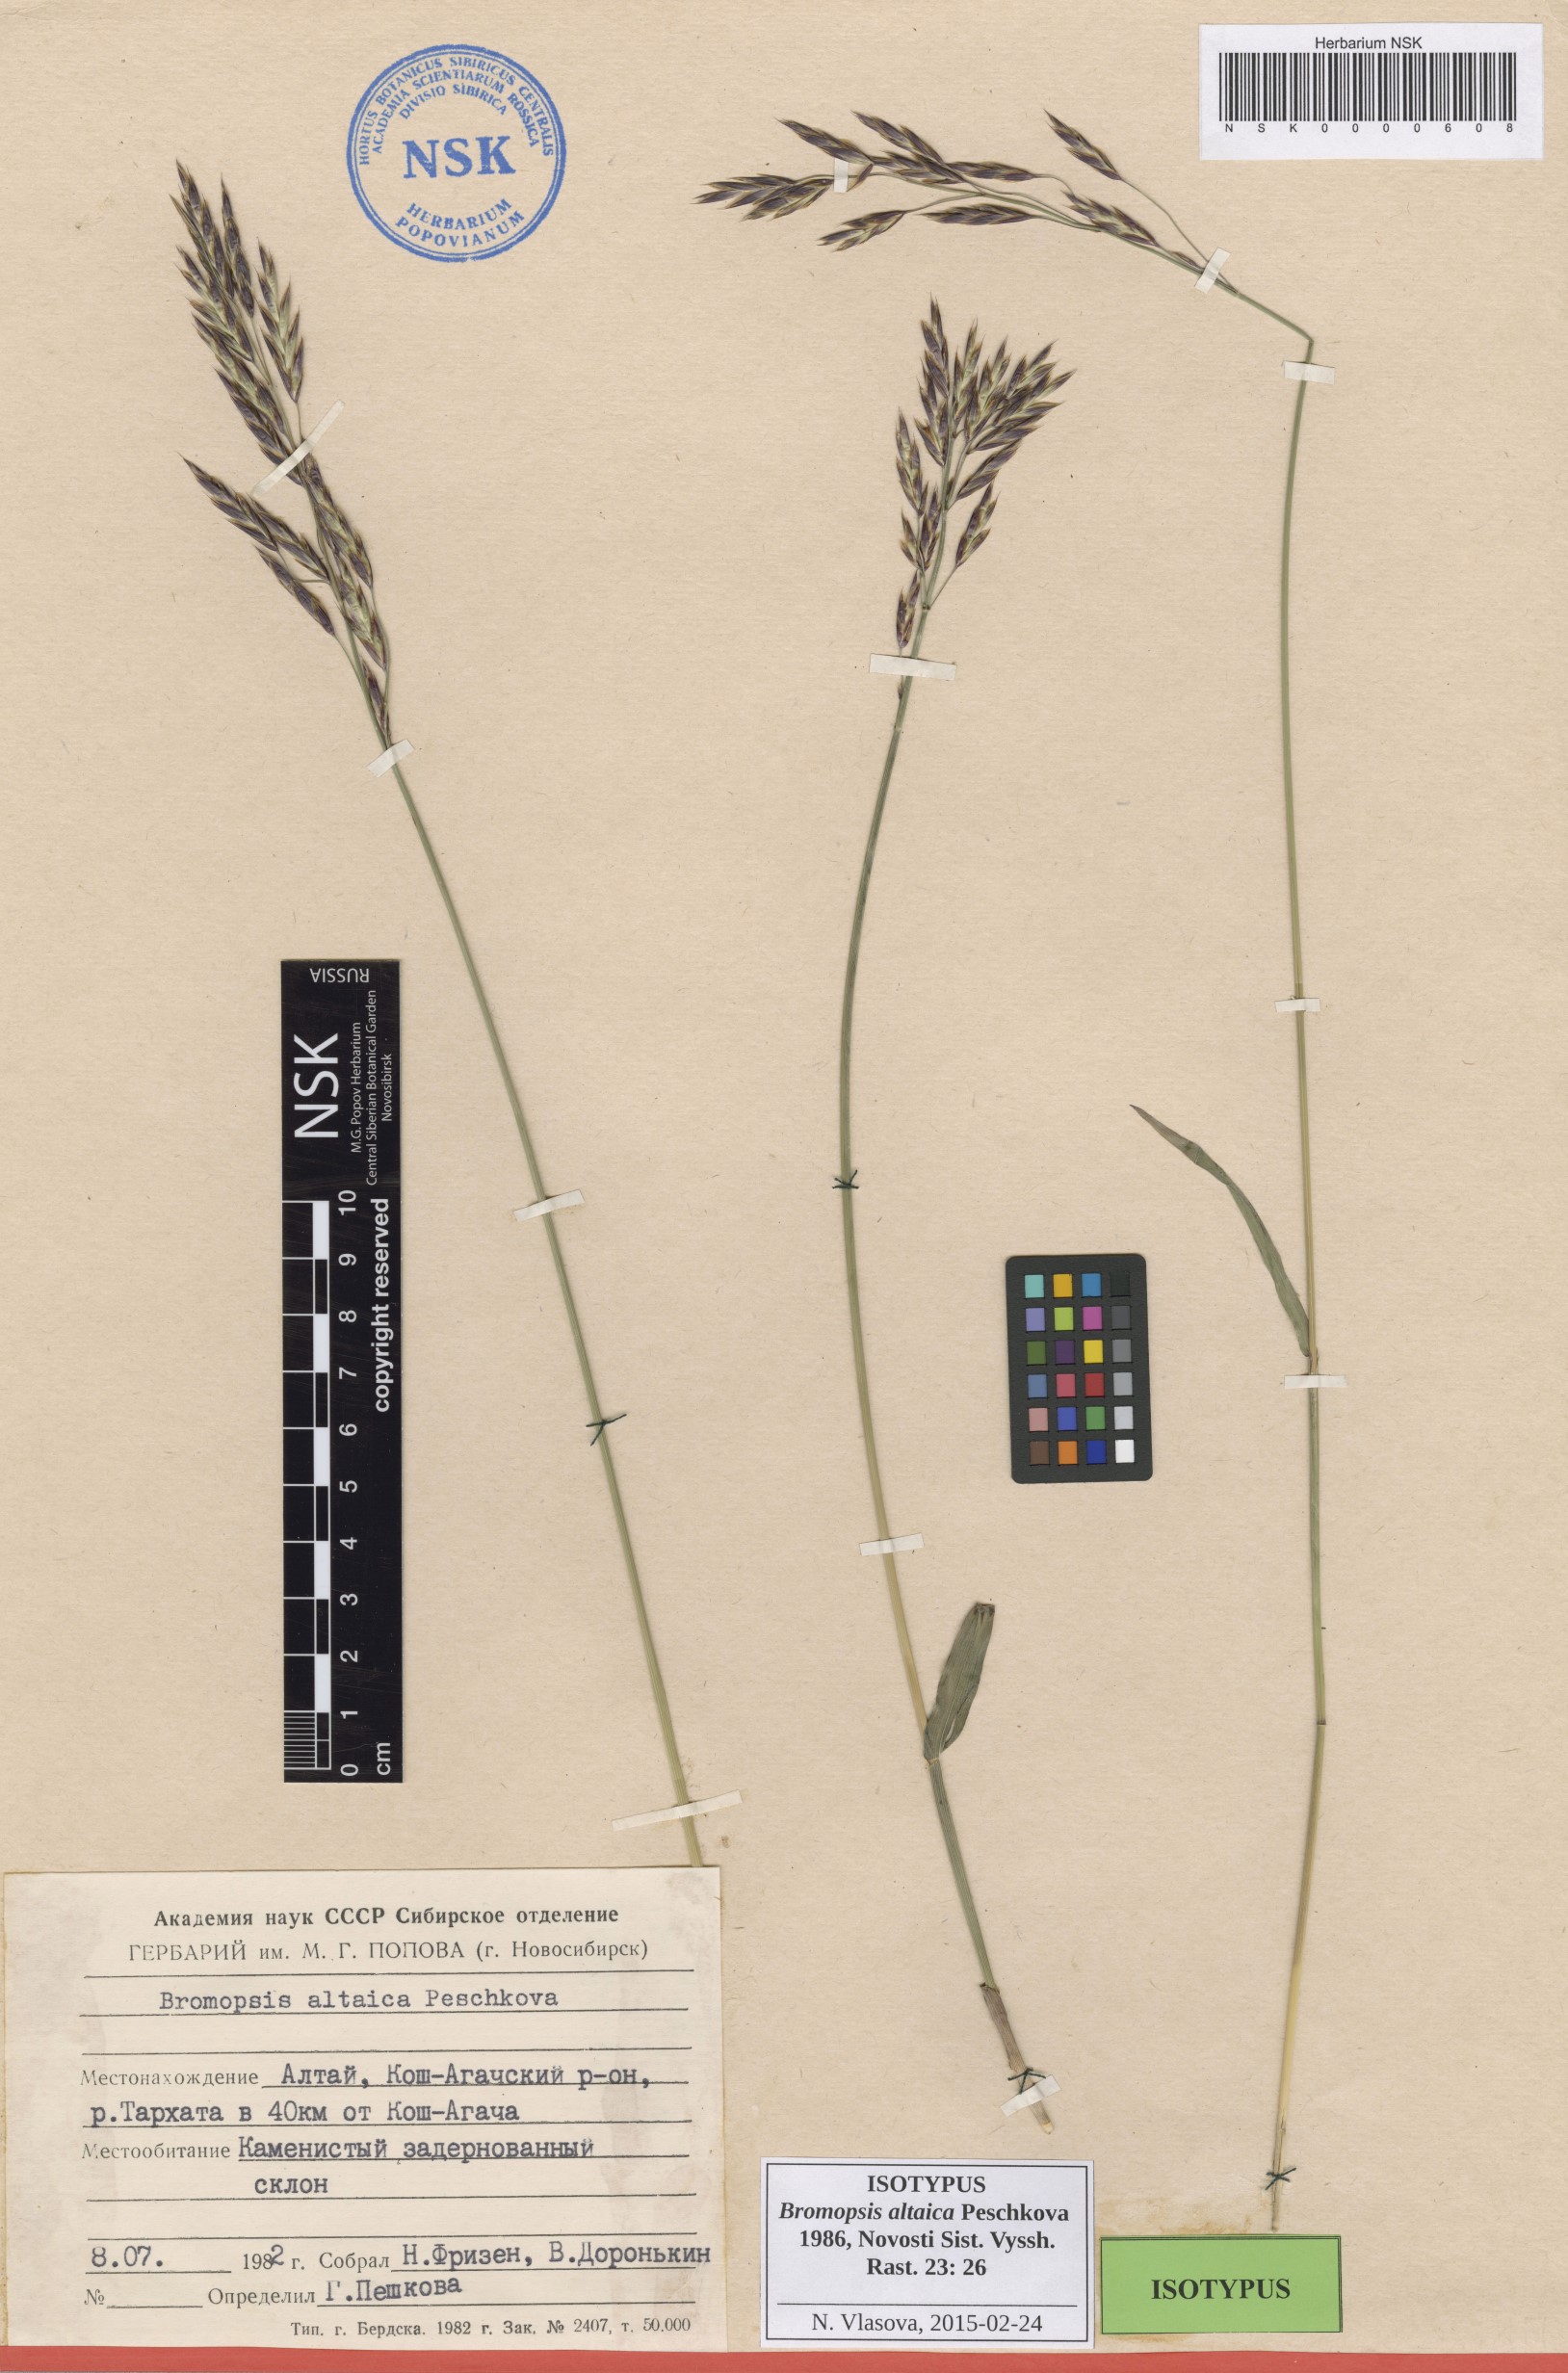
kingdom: Plantae
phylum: Tracheophyta
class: Liliopsida
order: Poales
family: Poaceae
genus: Bromus
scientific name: Bromus pumpellianus
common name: Pumpelly's brome
